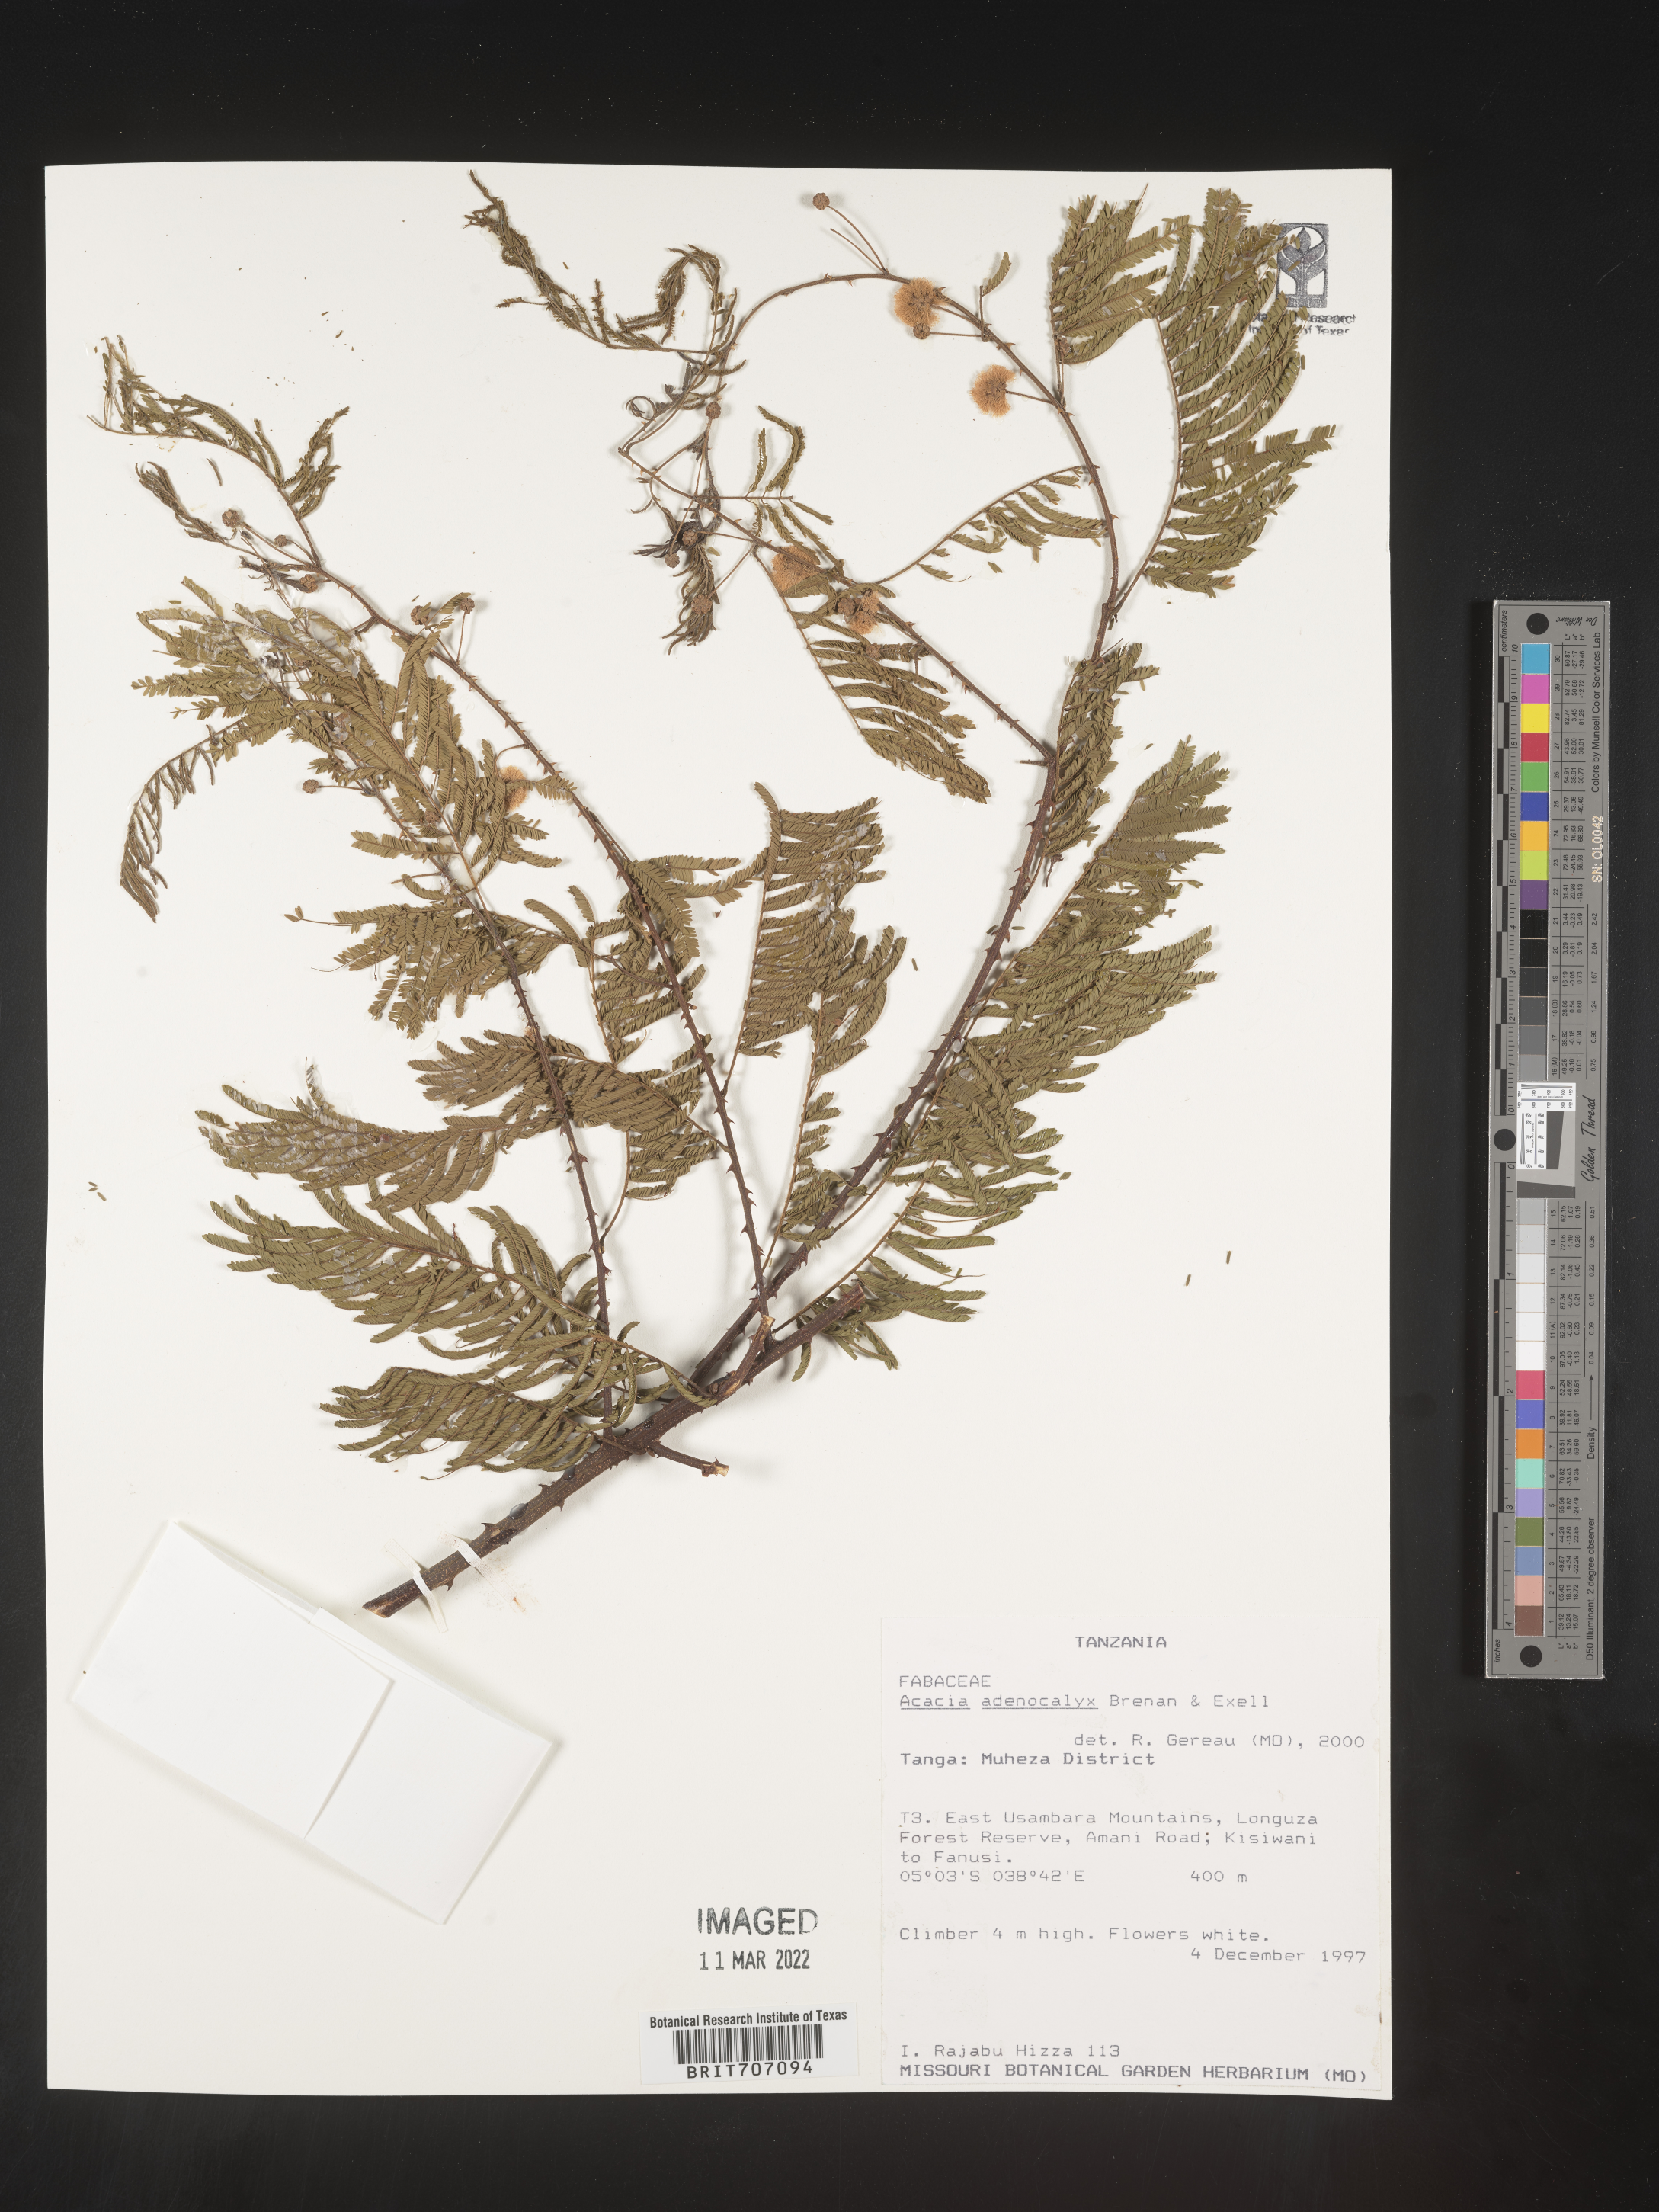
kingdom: Plantae
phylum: Tracheophyta
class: Magnoliopsida
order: Fabales
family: Fabaceae
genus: Acacia
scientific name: Acacia
